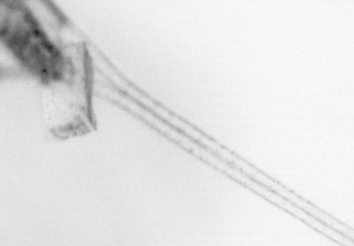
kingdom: Animalia
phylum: Arthropoda
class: Copepoda
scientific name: Copepoda
